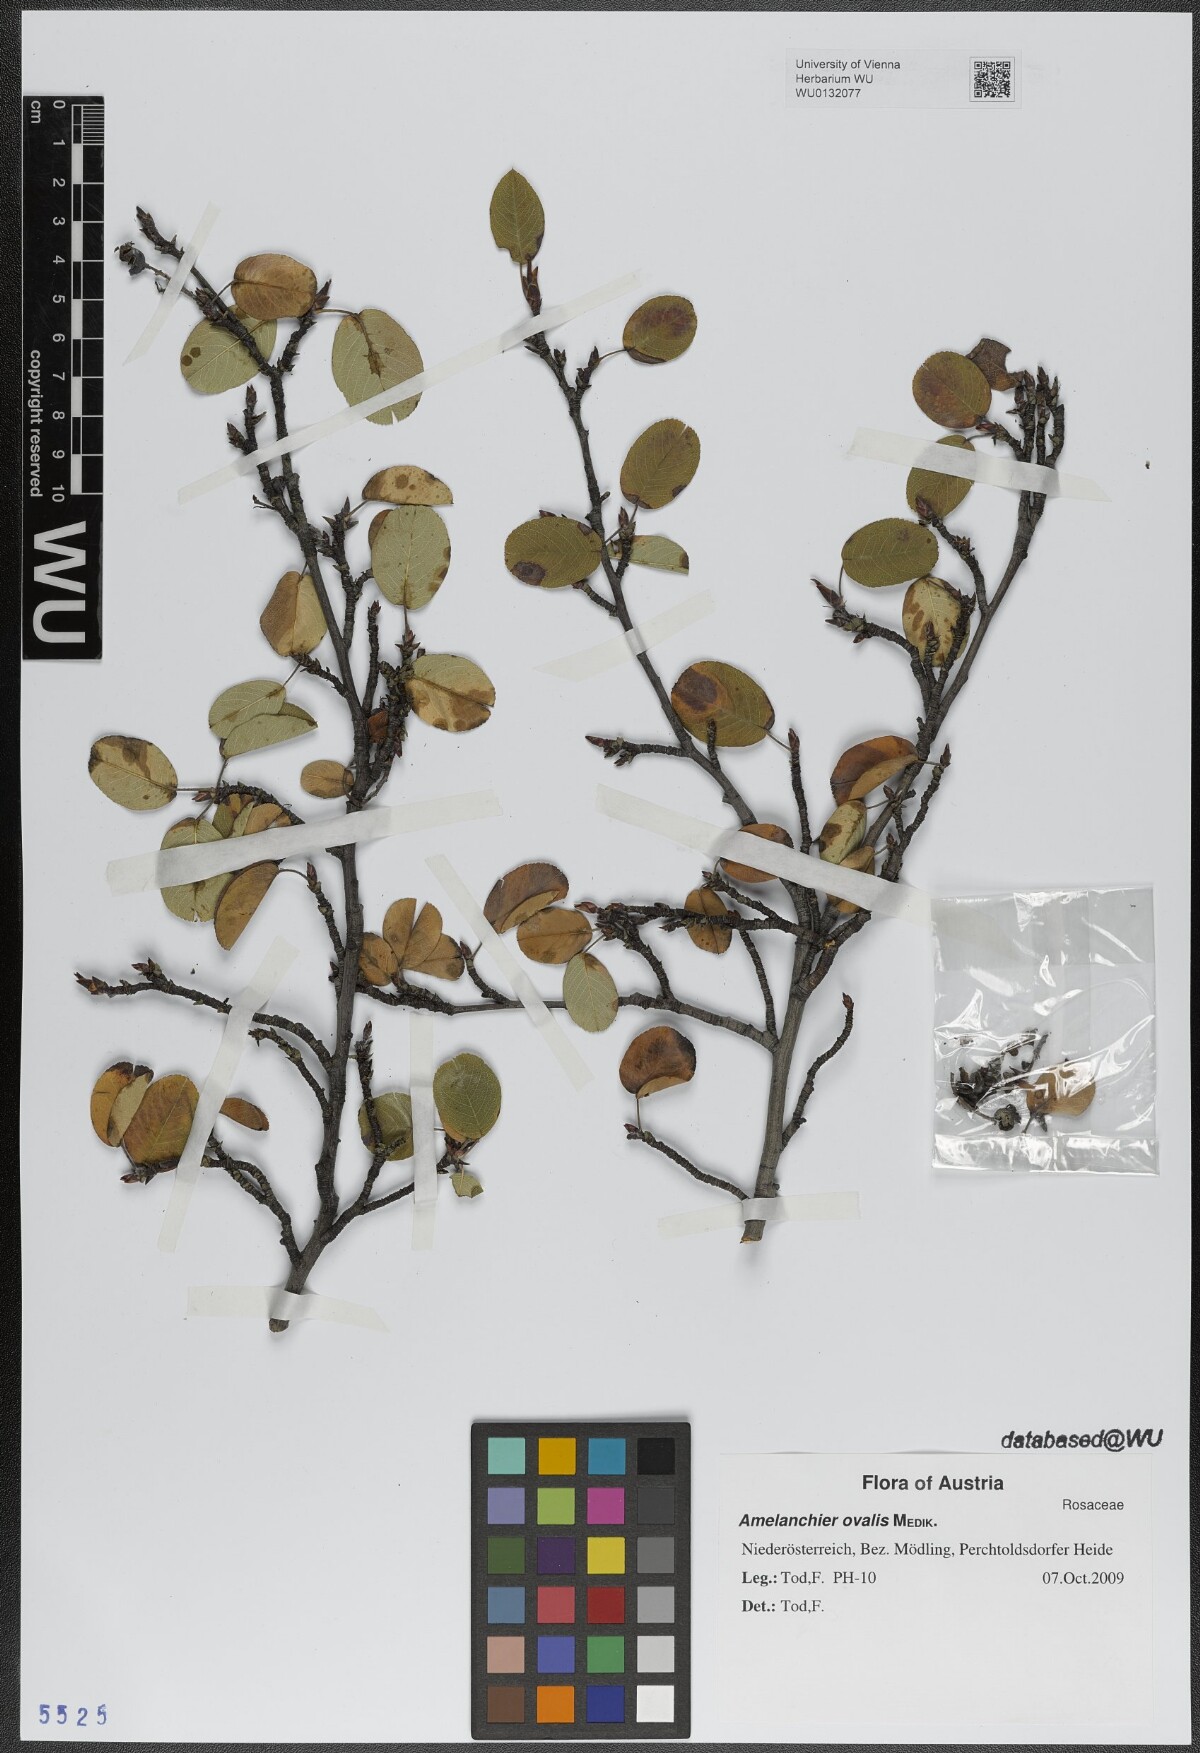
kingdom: Plantae
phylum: Tracheophyta
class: Magnoliopsida
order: Rosales
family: Rosaceae
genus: Amelanchier
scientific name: Amelanchier ovalis
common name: Serviceberry
